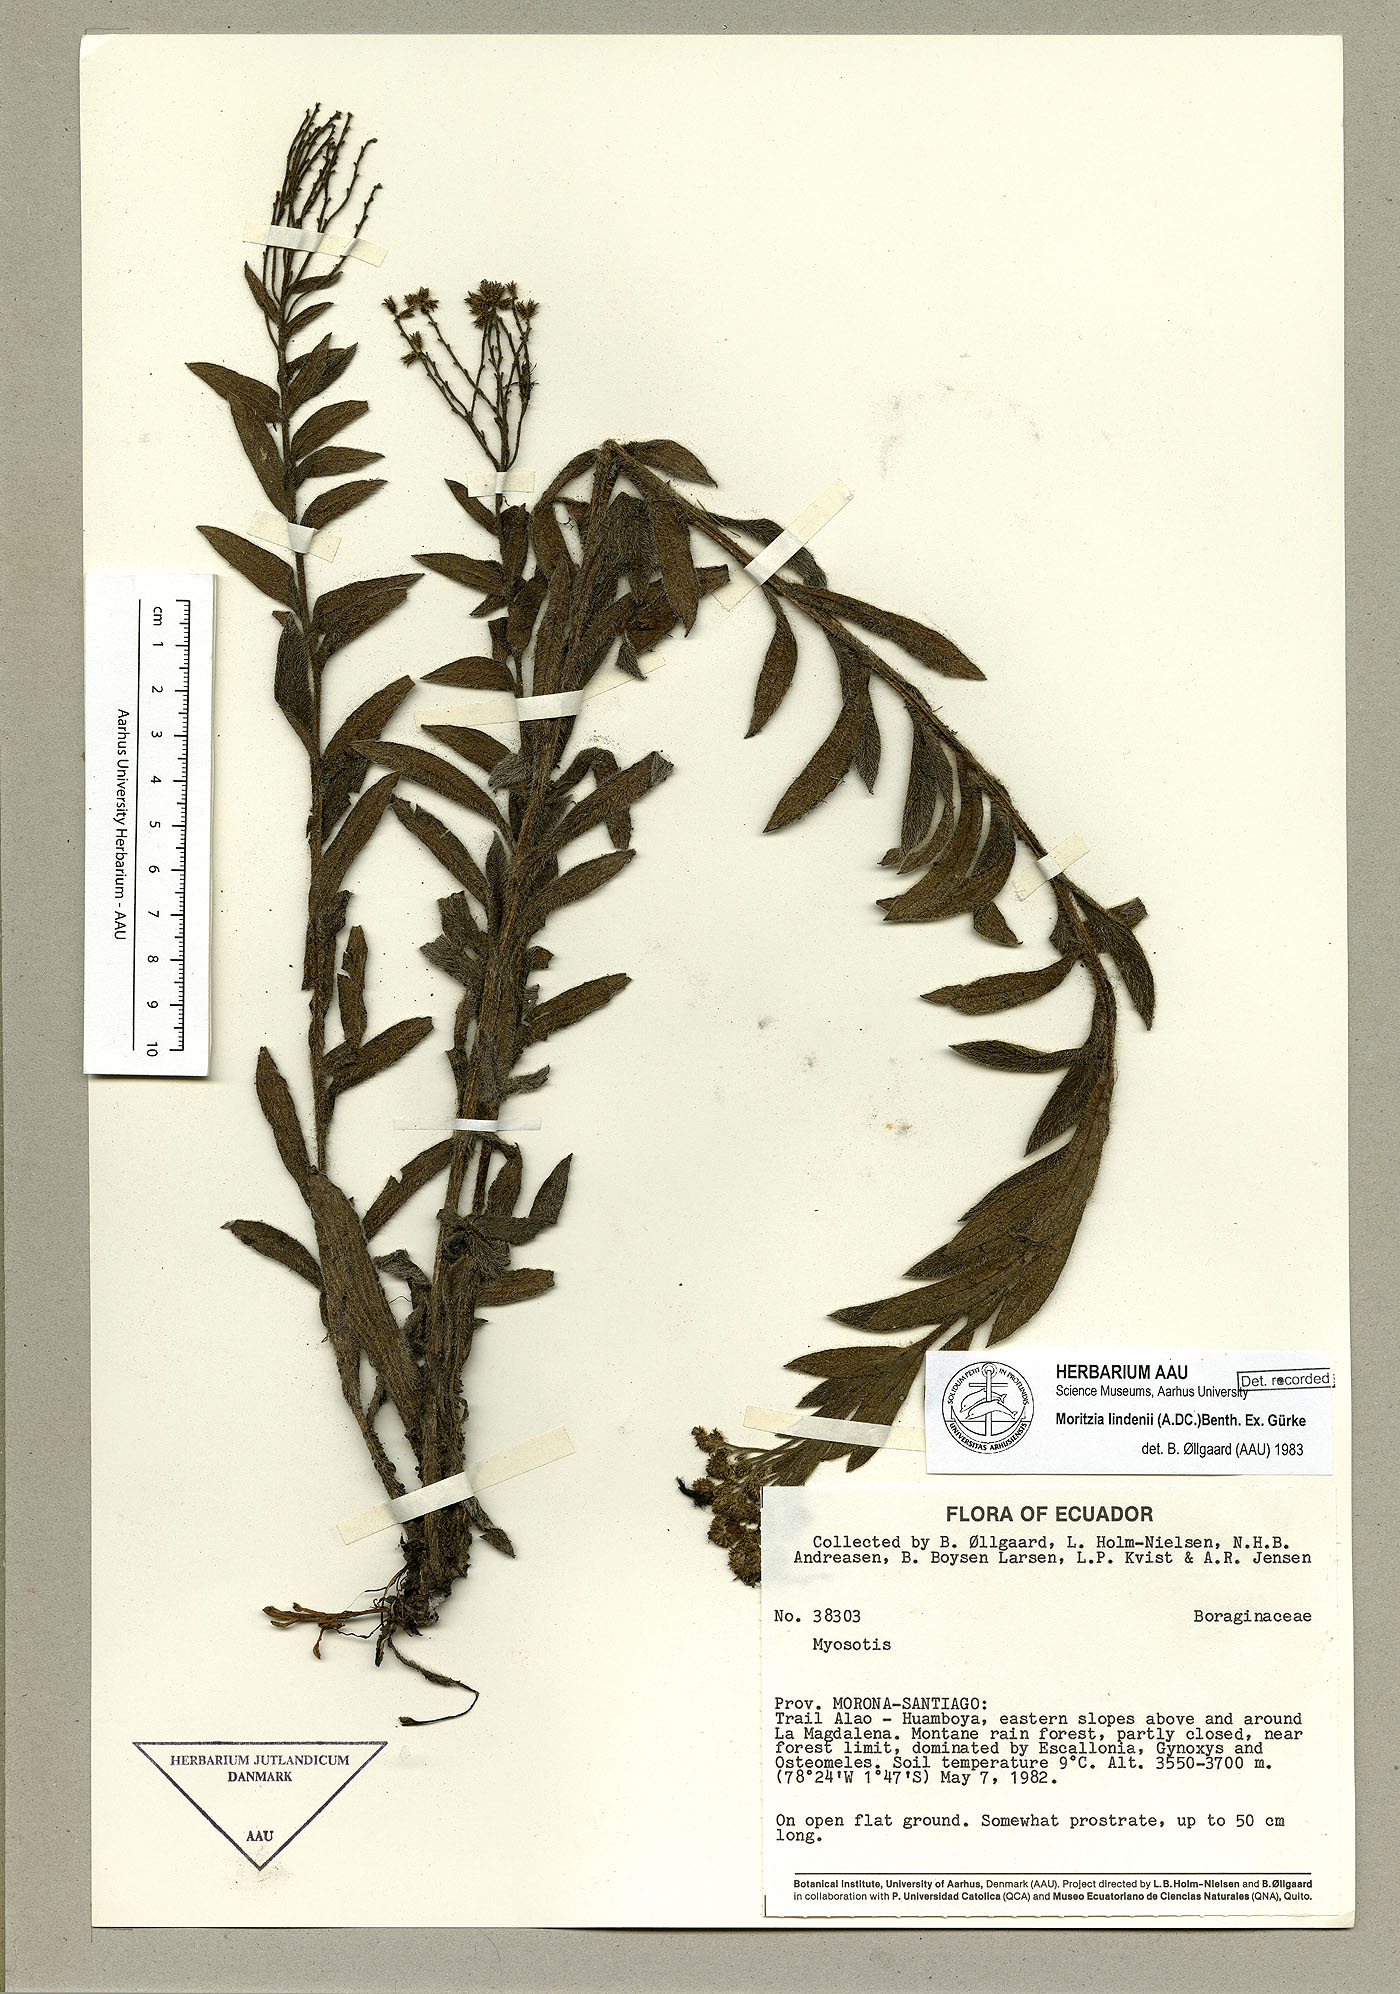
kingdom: Plantae
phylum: Tracheophyta
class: Magnoliopsida
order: Boraginales
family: Boraginaceae
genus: Moritzia
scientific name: Moritzia lindenii
